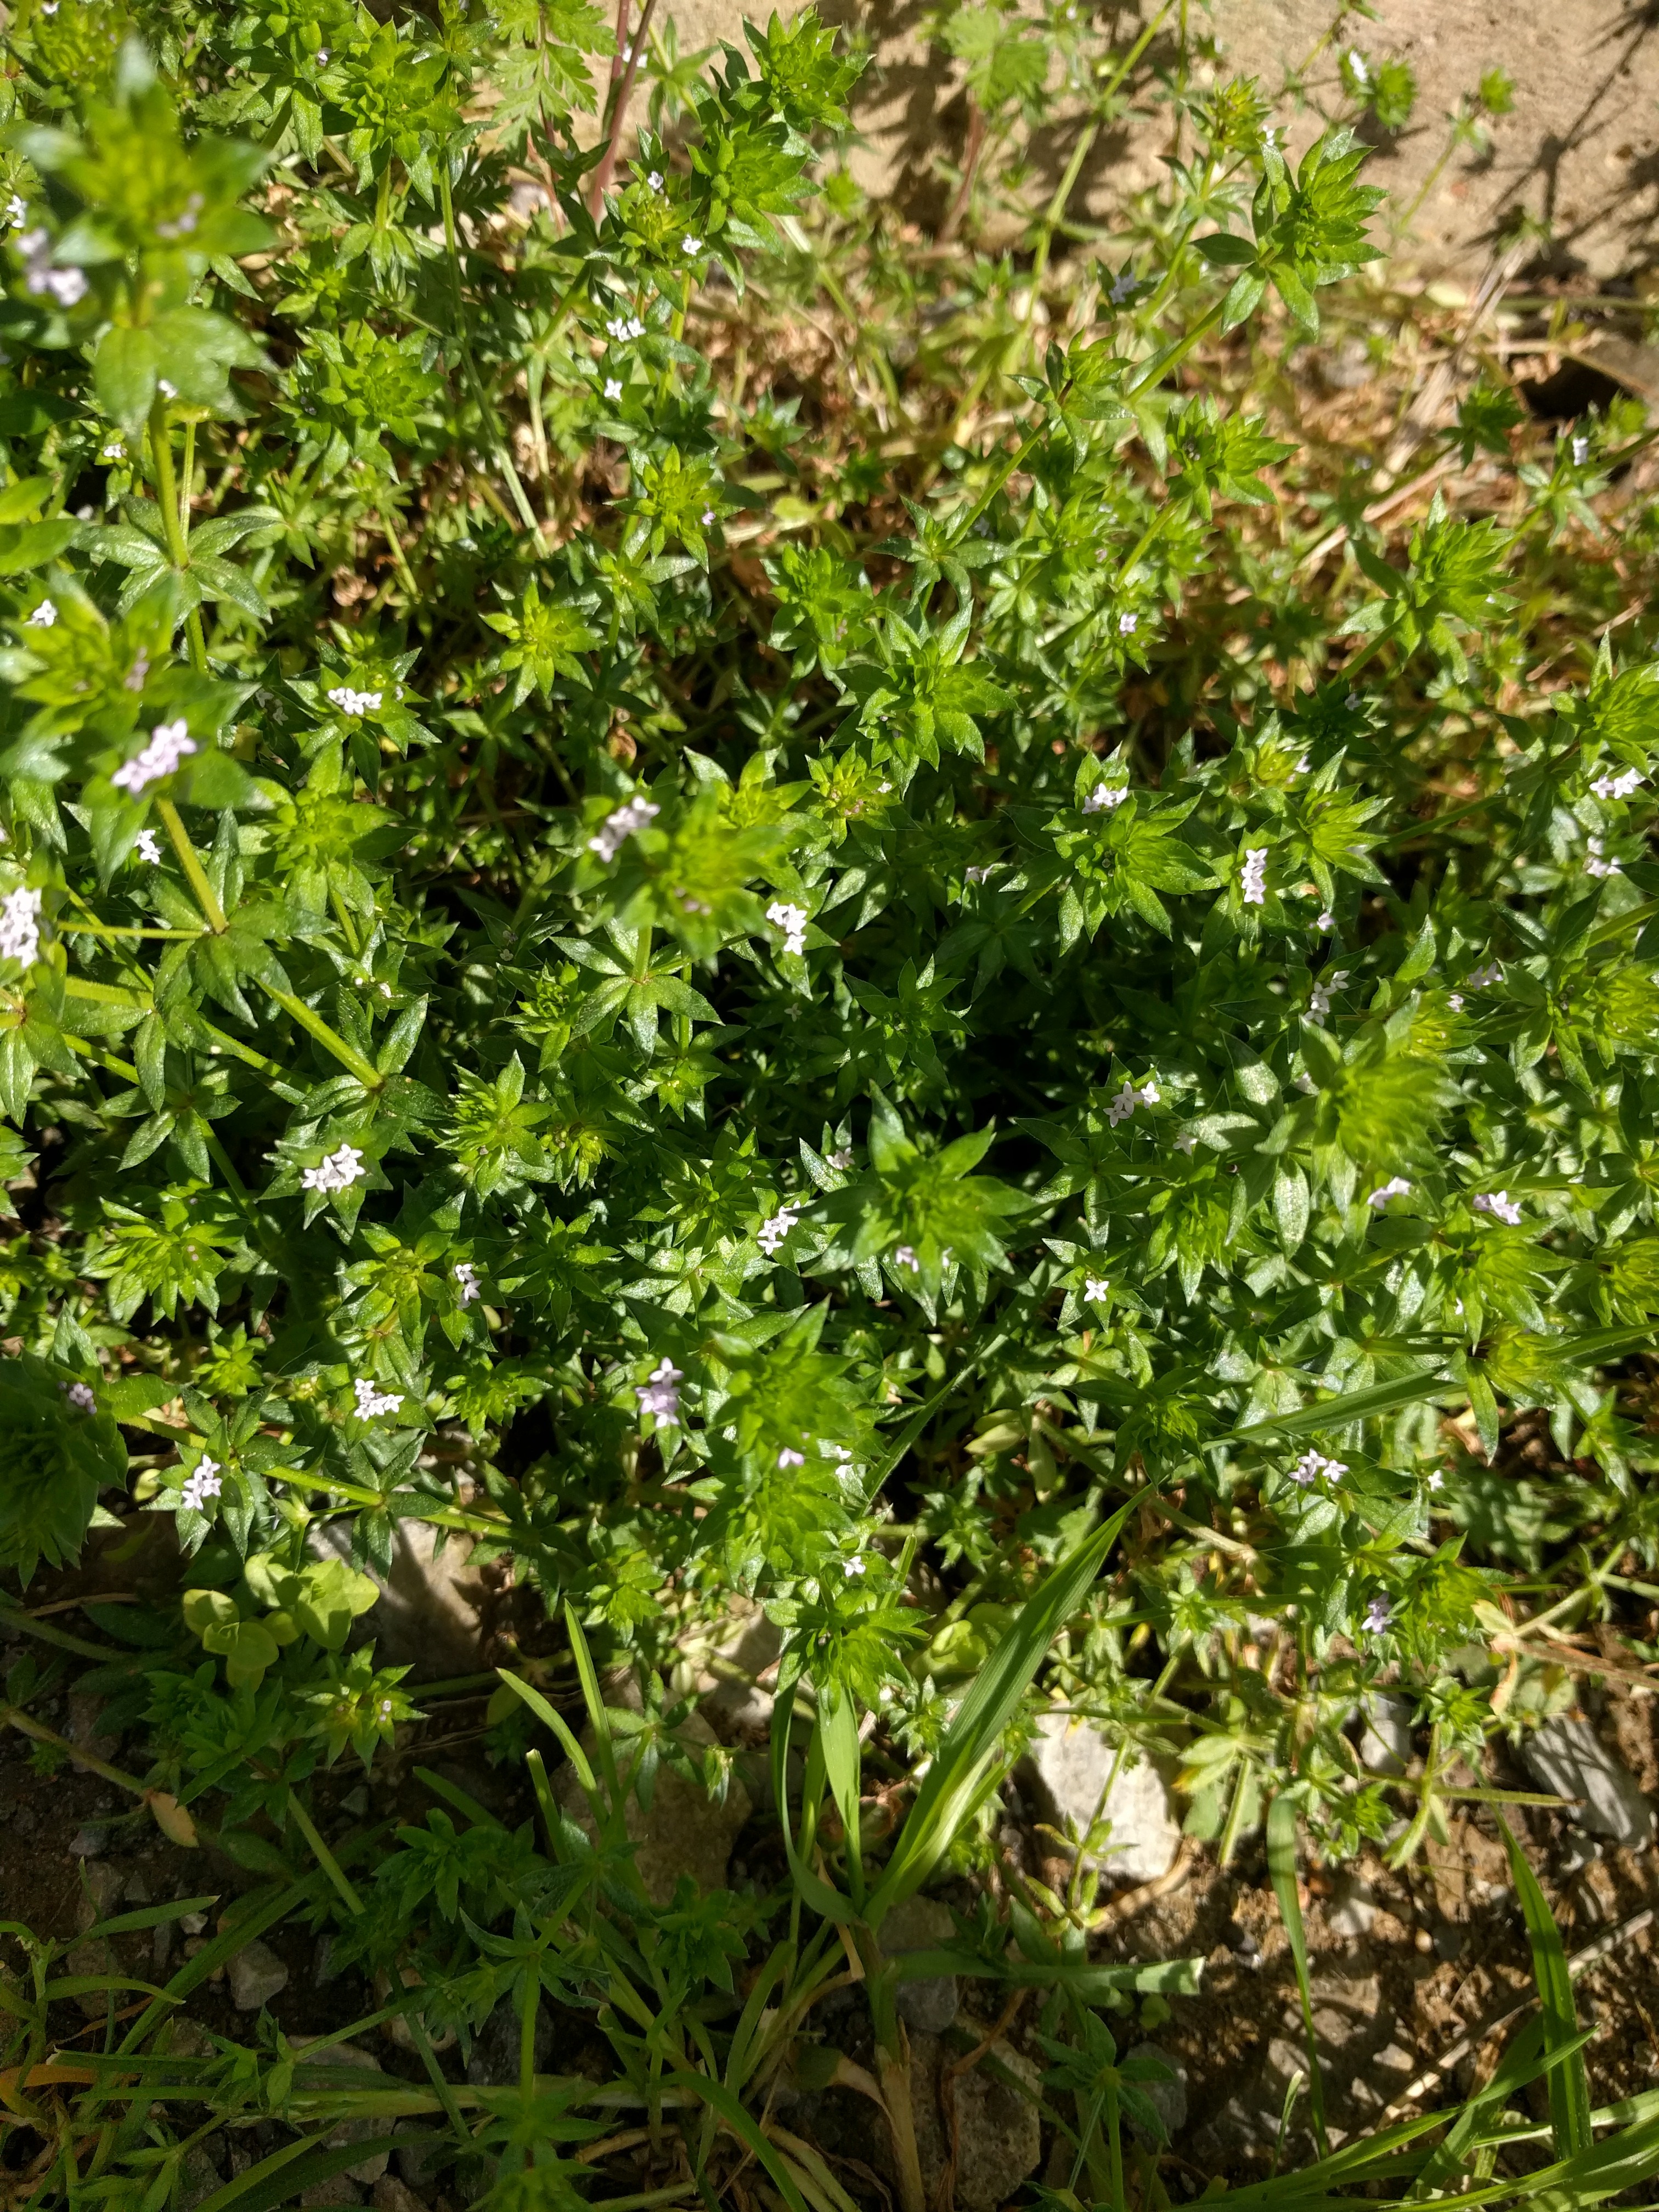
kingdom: Plantae
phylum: Tracheophyta
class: Magnoliopsida
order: Lamiales
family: Plantaginaceae
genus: Veronica
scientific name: Veronica peregrina
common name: Neckweed
